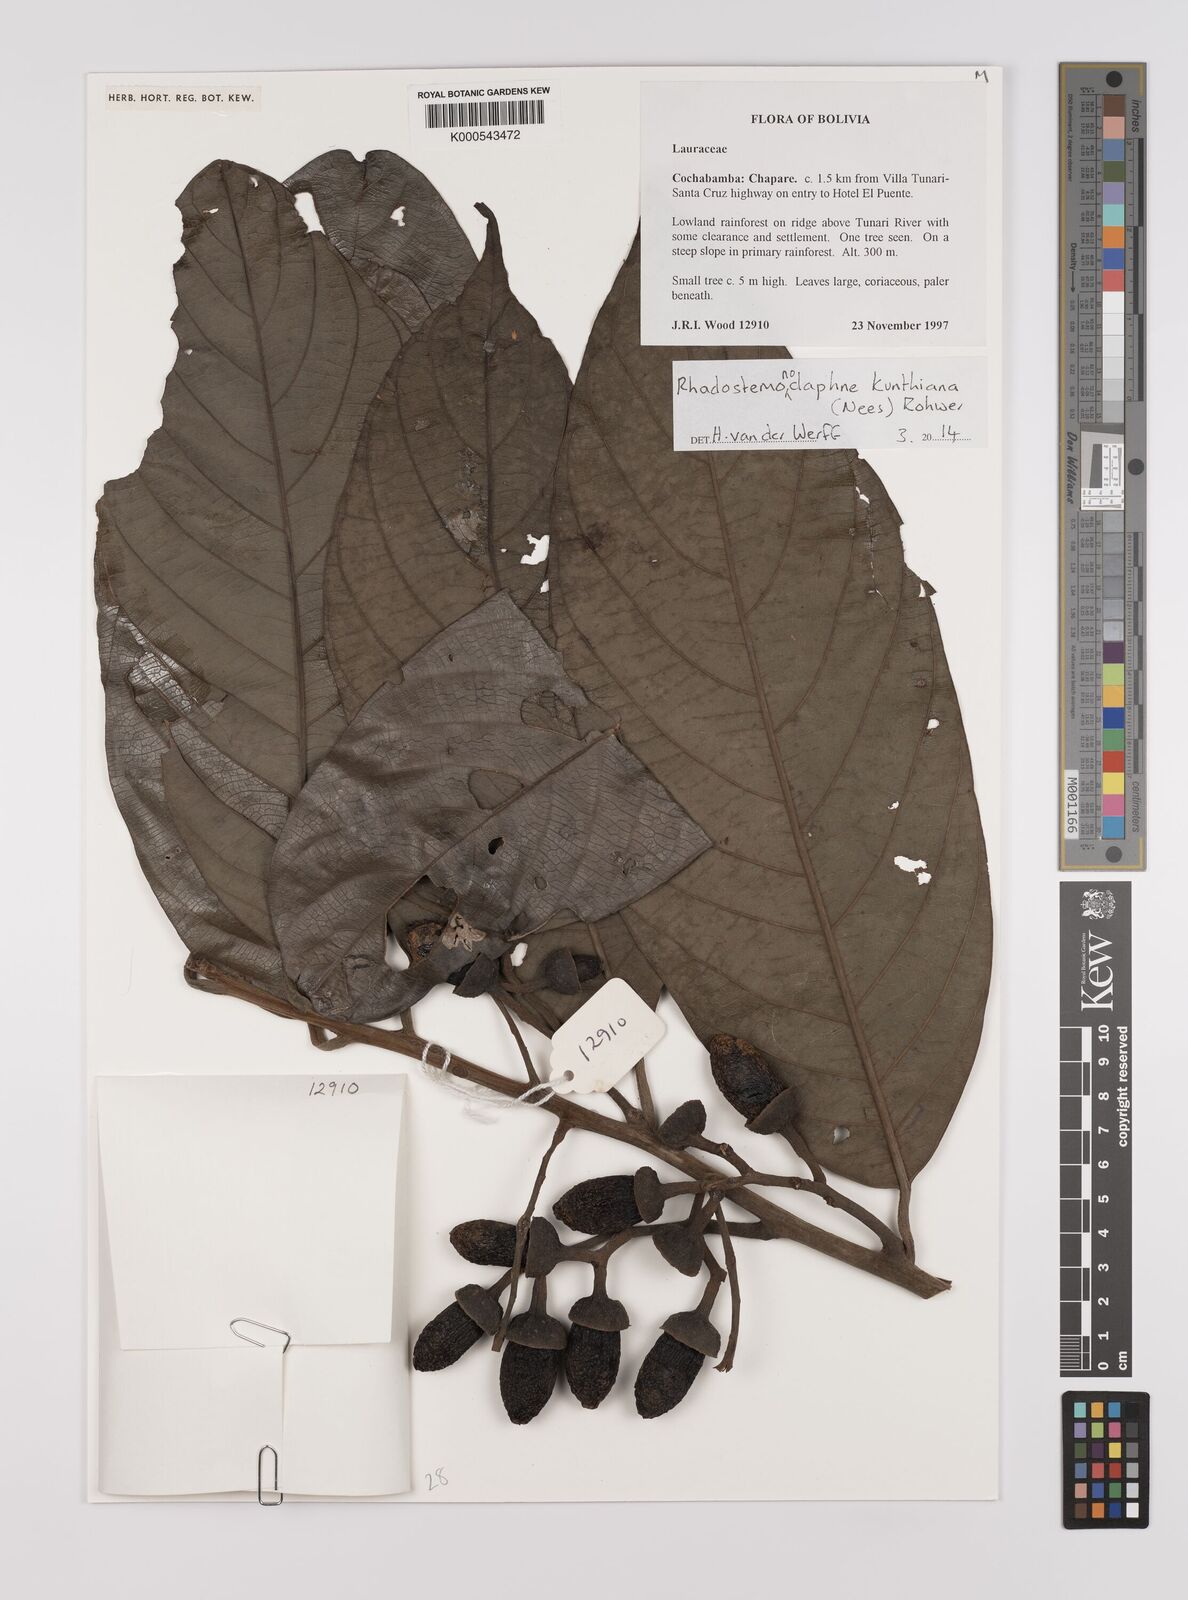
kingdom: Plantae
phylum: Tracheophyta
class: Magnoliopsida
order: Laurales
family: Lauraceae
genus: Rhodostemonodaphne
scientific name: Rhodostemonodaphne kunthiana
